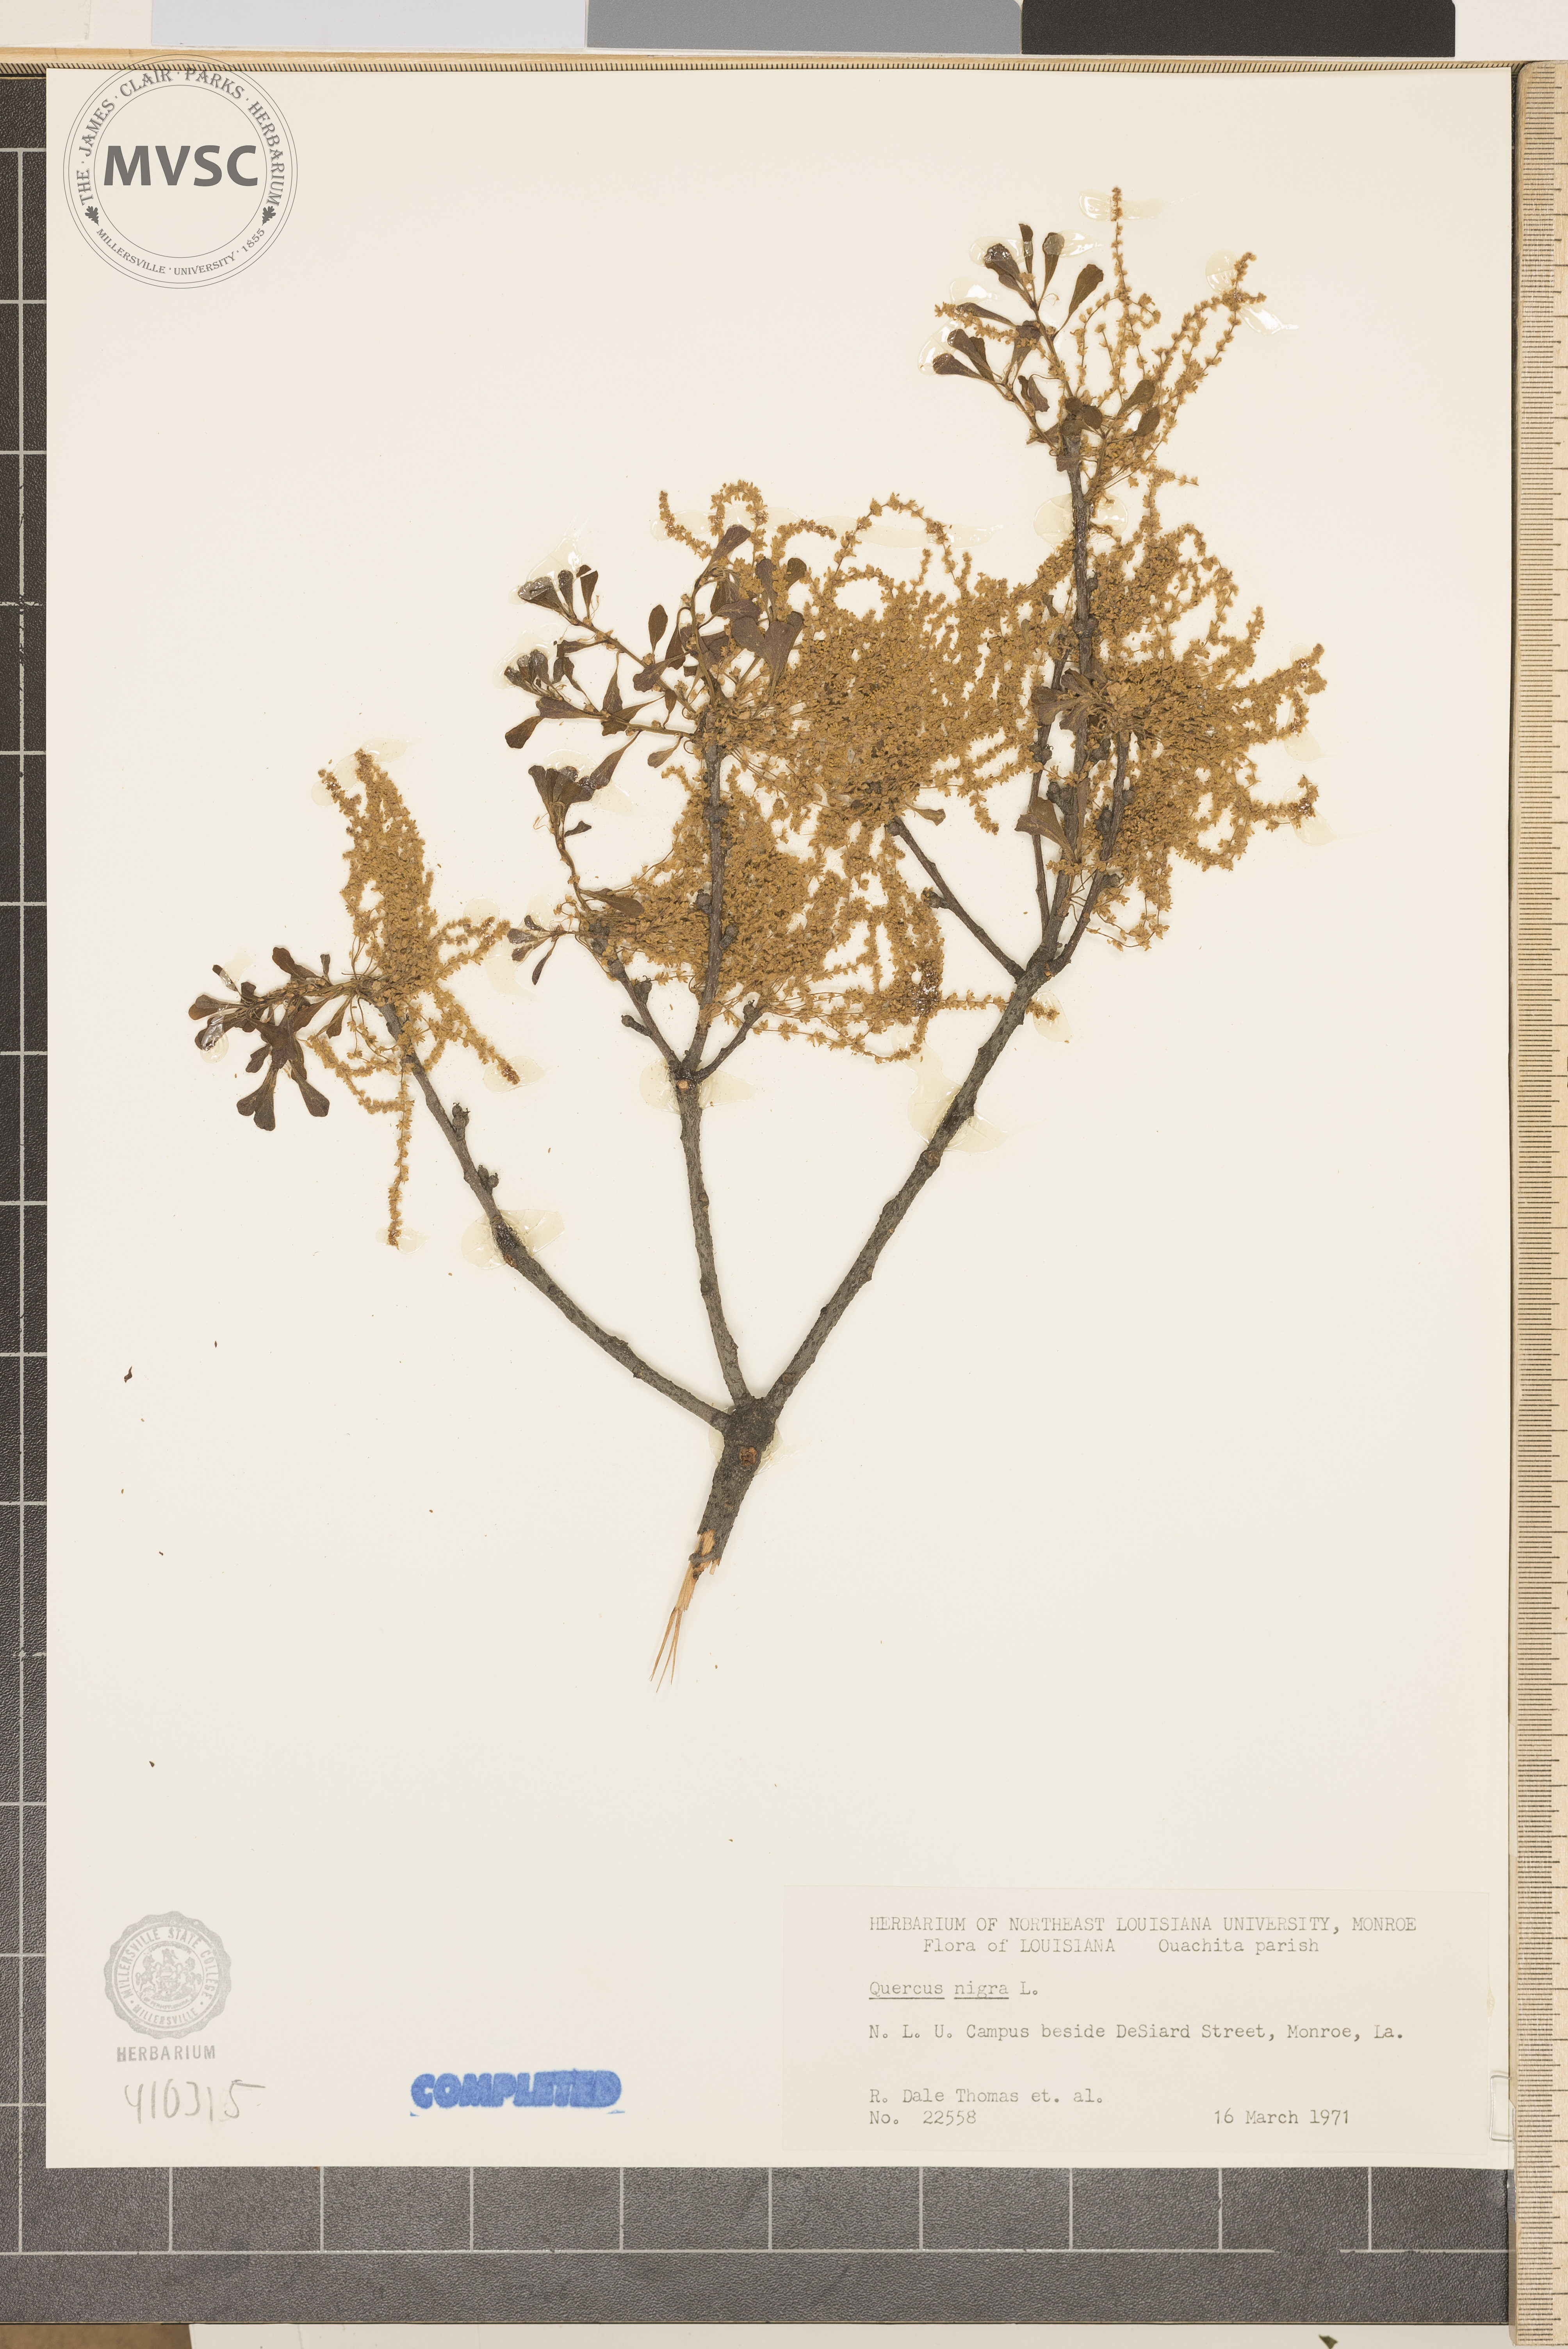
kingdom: Plantae
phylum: Tracheophyta
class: Magnoliopsida
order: Fagales
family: Fagaceae
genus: Quercus
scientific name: Quercus nigra
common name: Water oak
